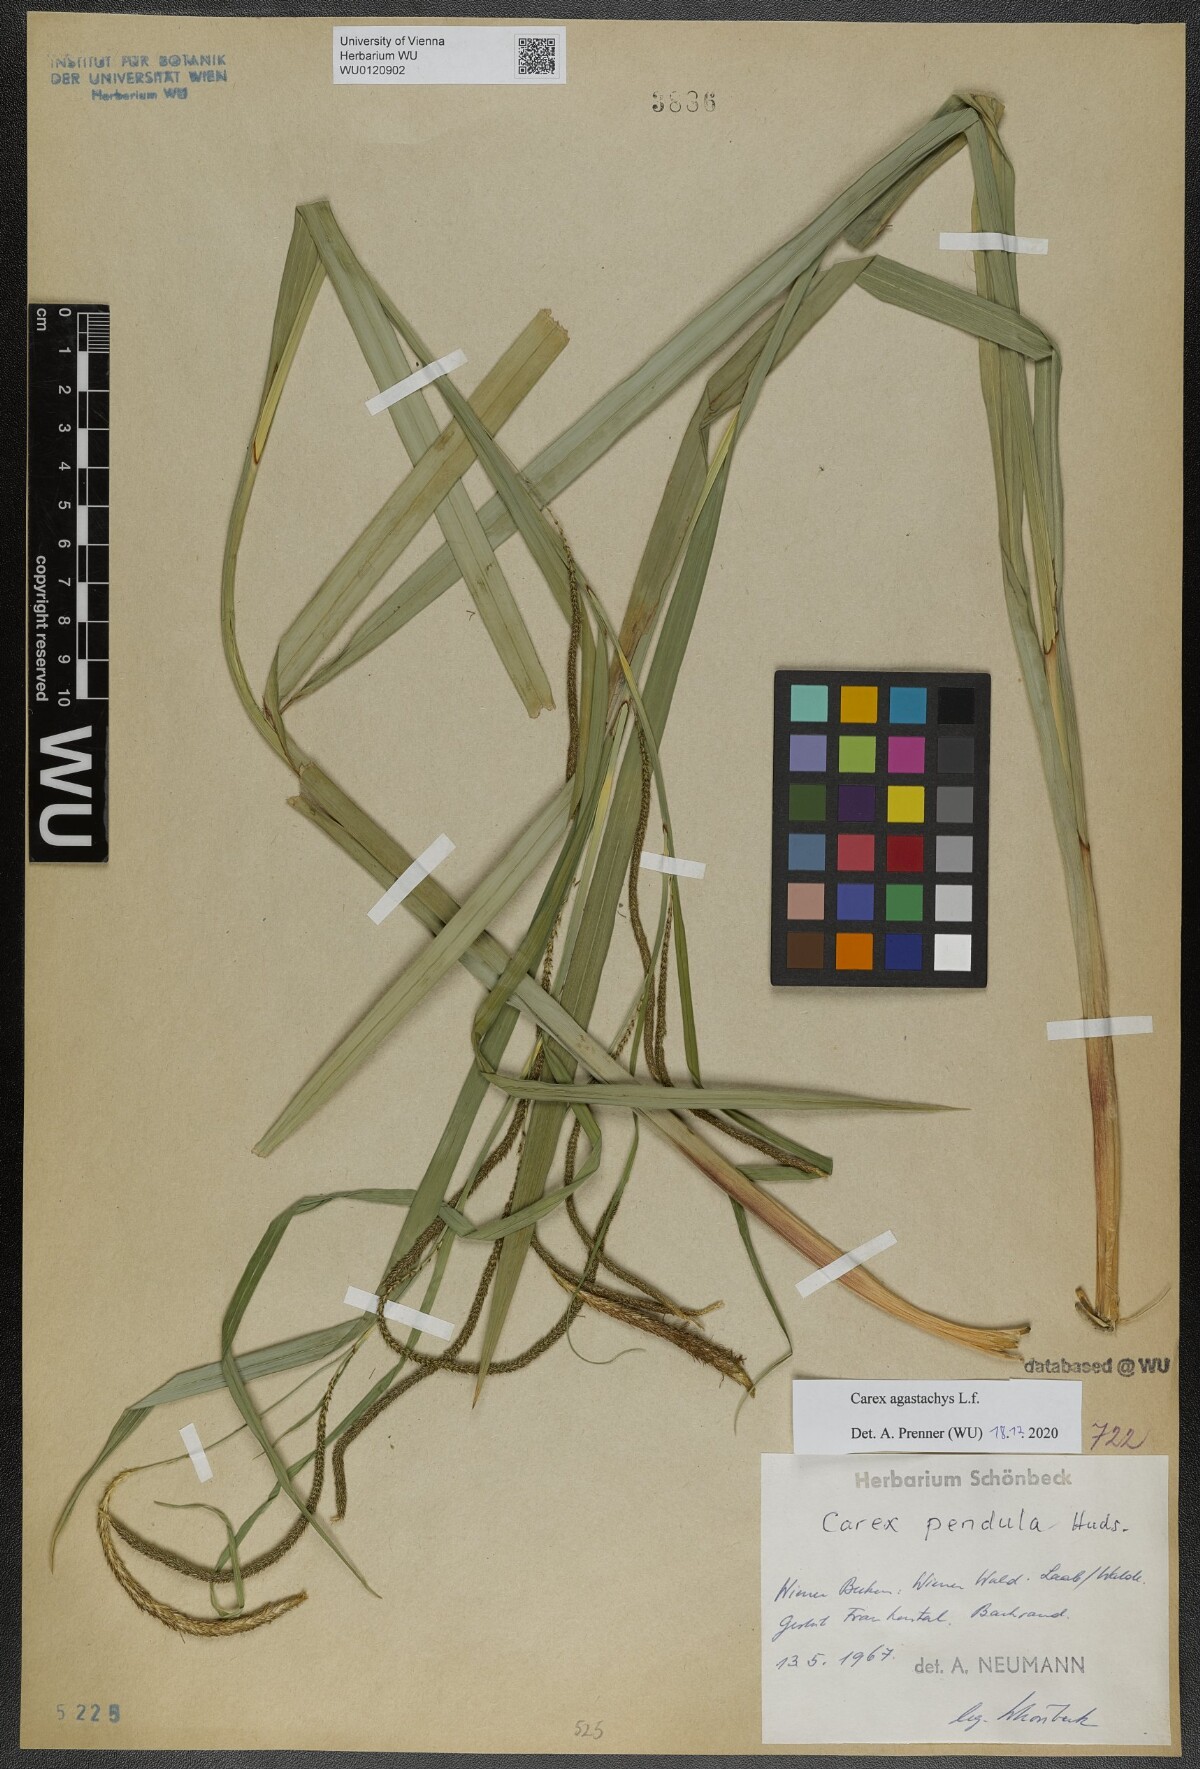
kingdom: Plantae
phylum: Tracheophyta
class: Liliopsida
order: Poales
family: Cyperaceae
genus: Carex
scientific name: Carex agastachys
